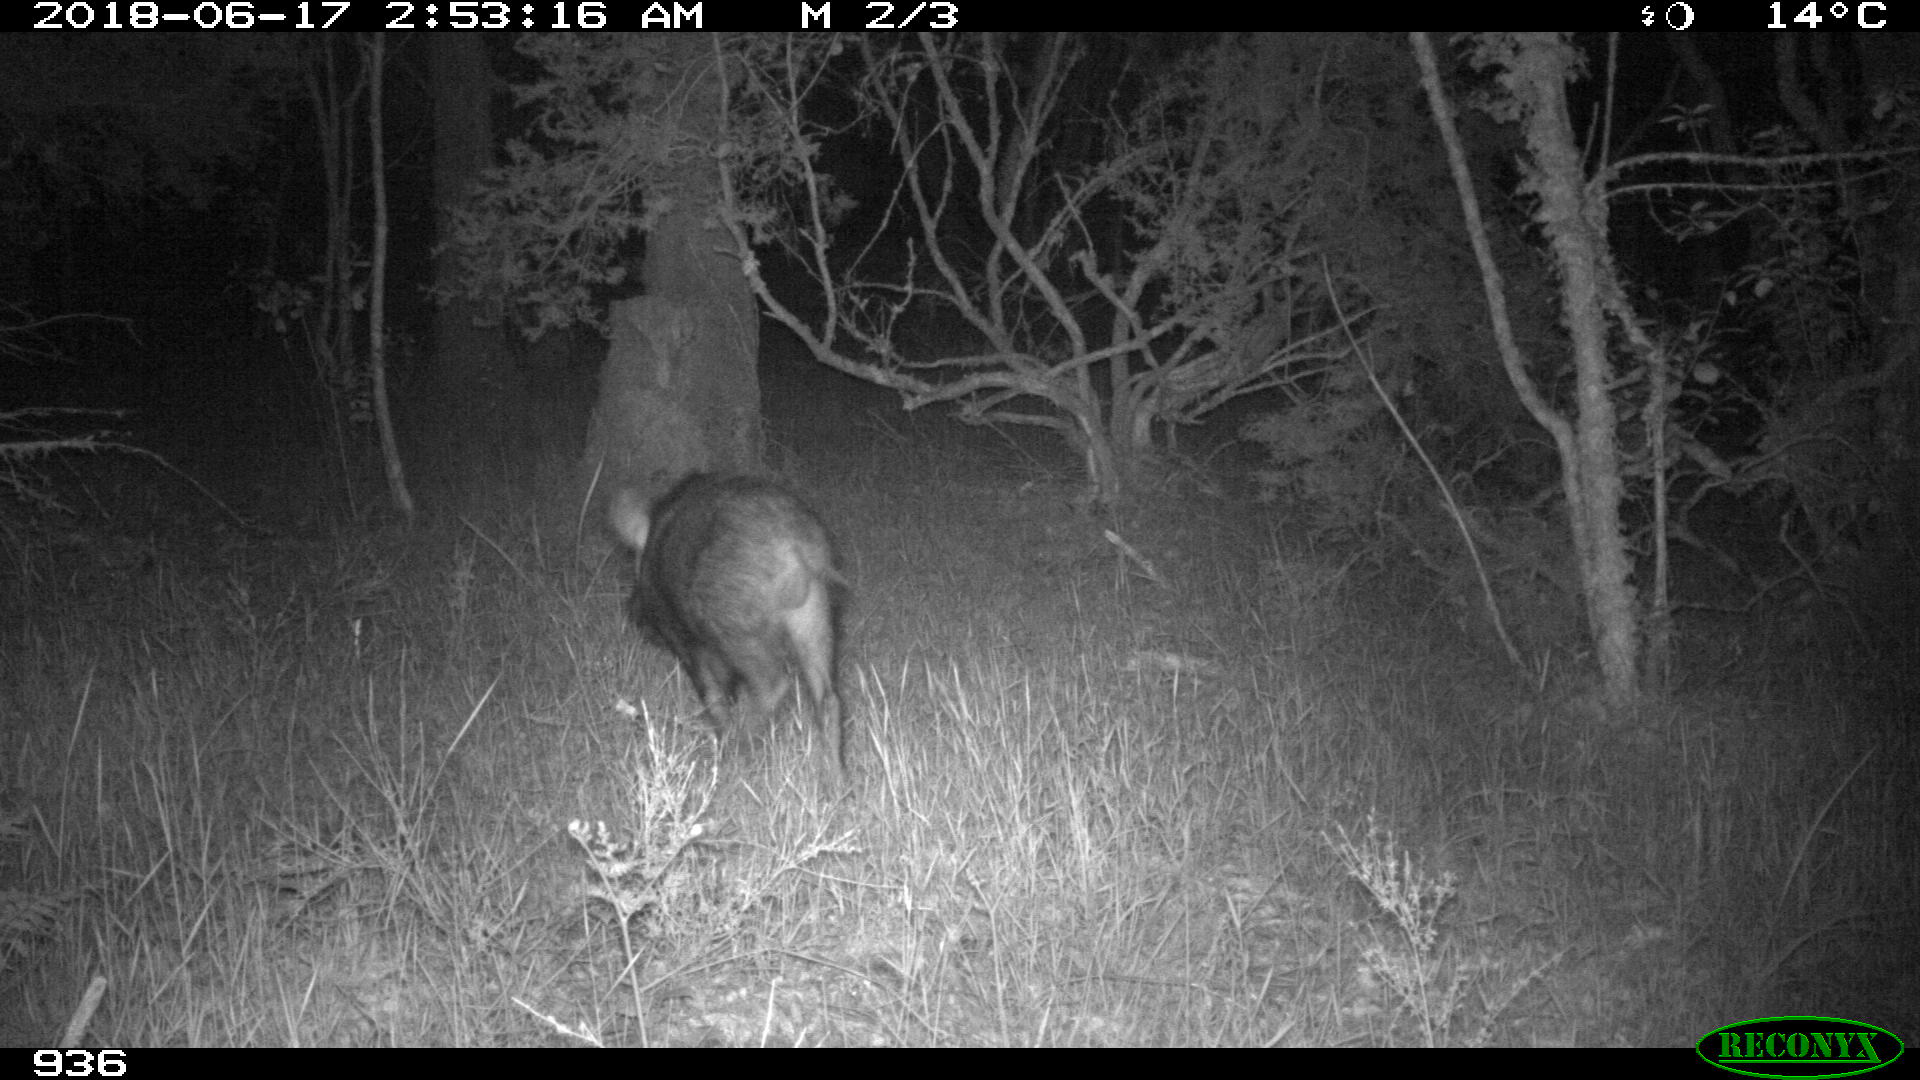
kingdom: Animalia
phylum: Chordata
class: Mammalia
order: Artiodactyla
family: Suidae
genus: Sus
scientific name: Sus scrofa
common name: Wild boar
